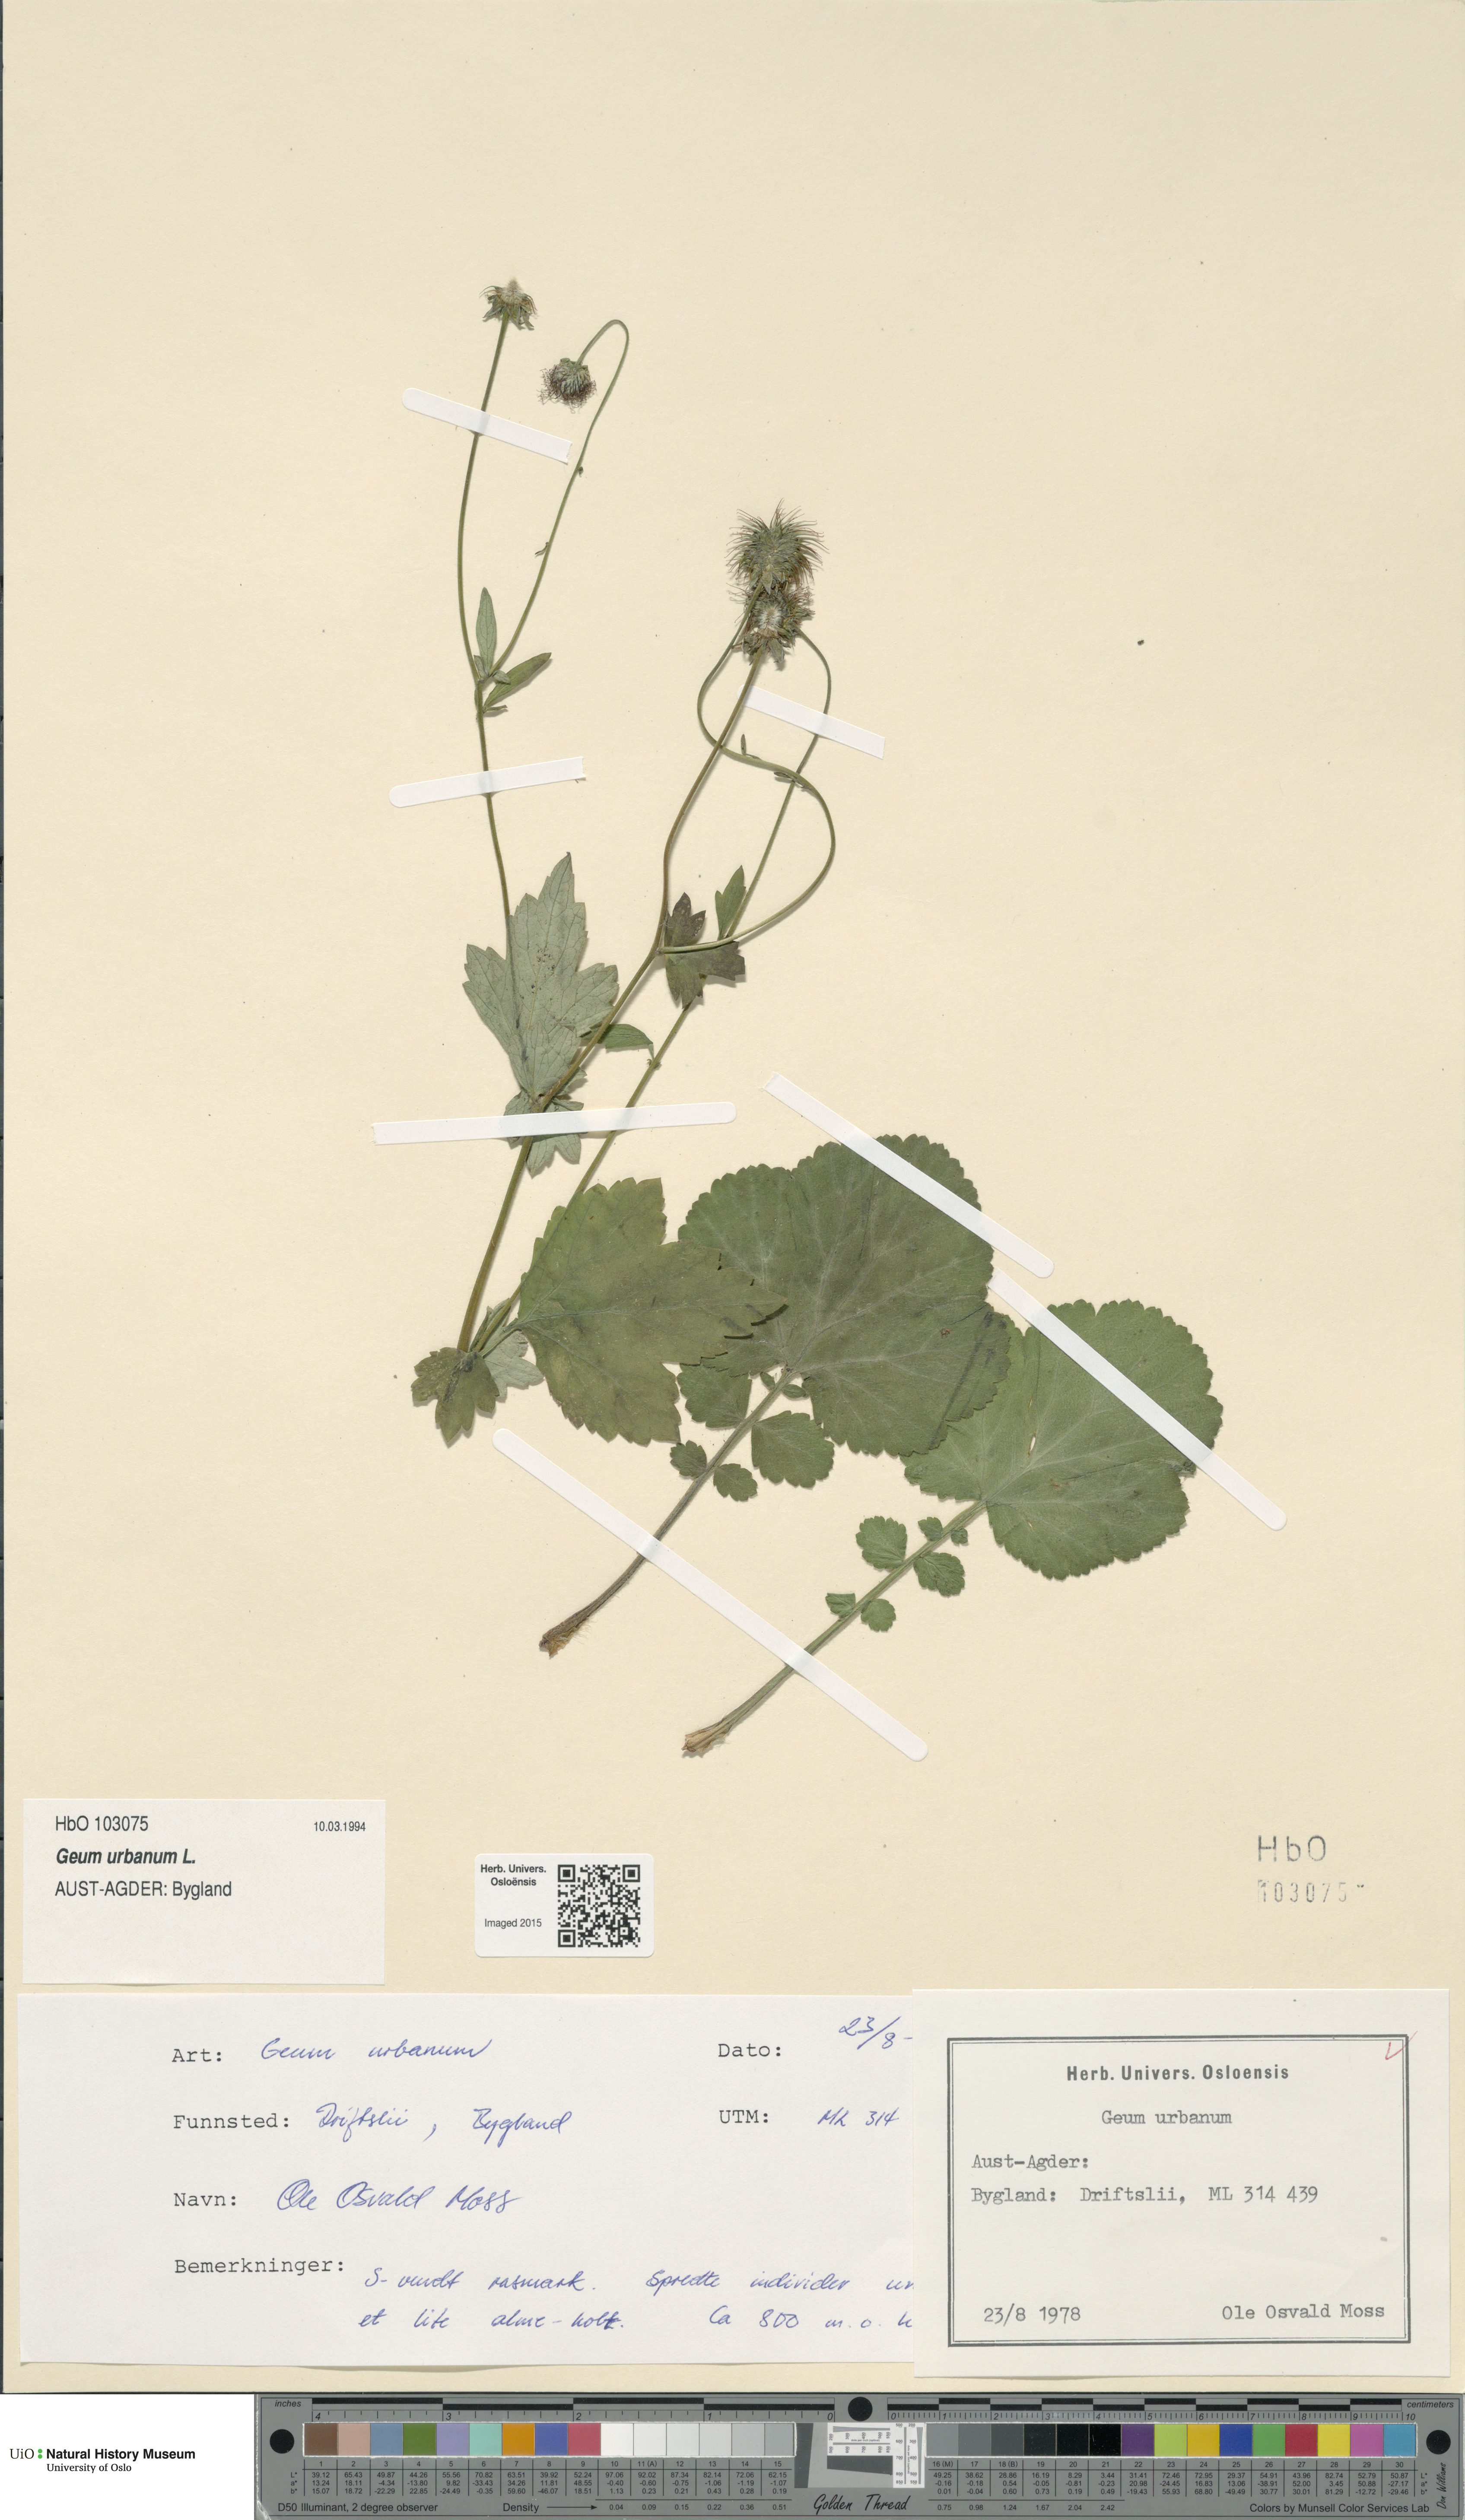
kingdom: Plantae
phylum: Tracheophyta
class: Magnoliopsida
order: Rosales
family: Rosaceae
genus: Geum
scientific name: Geum urbanum
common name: Wood avens
